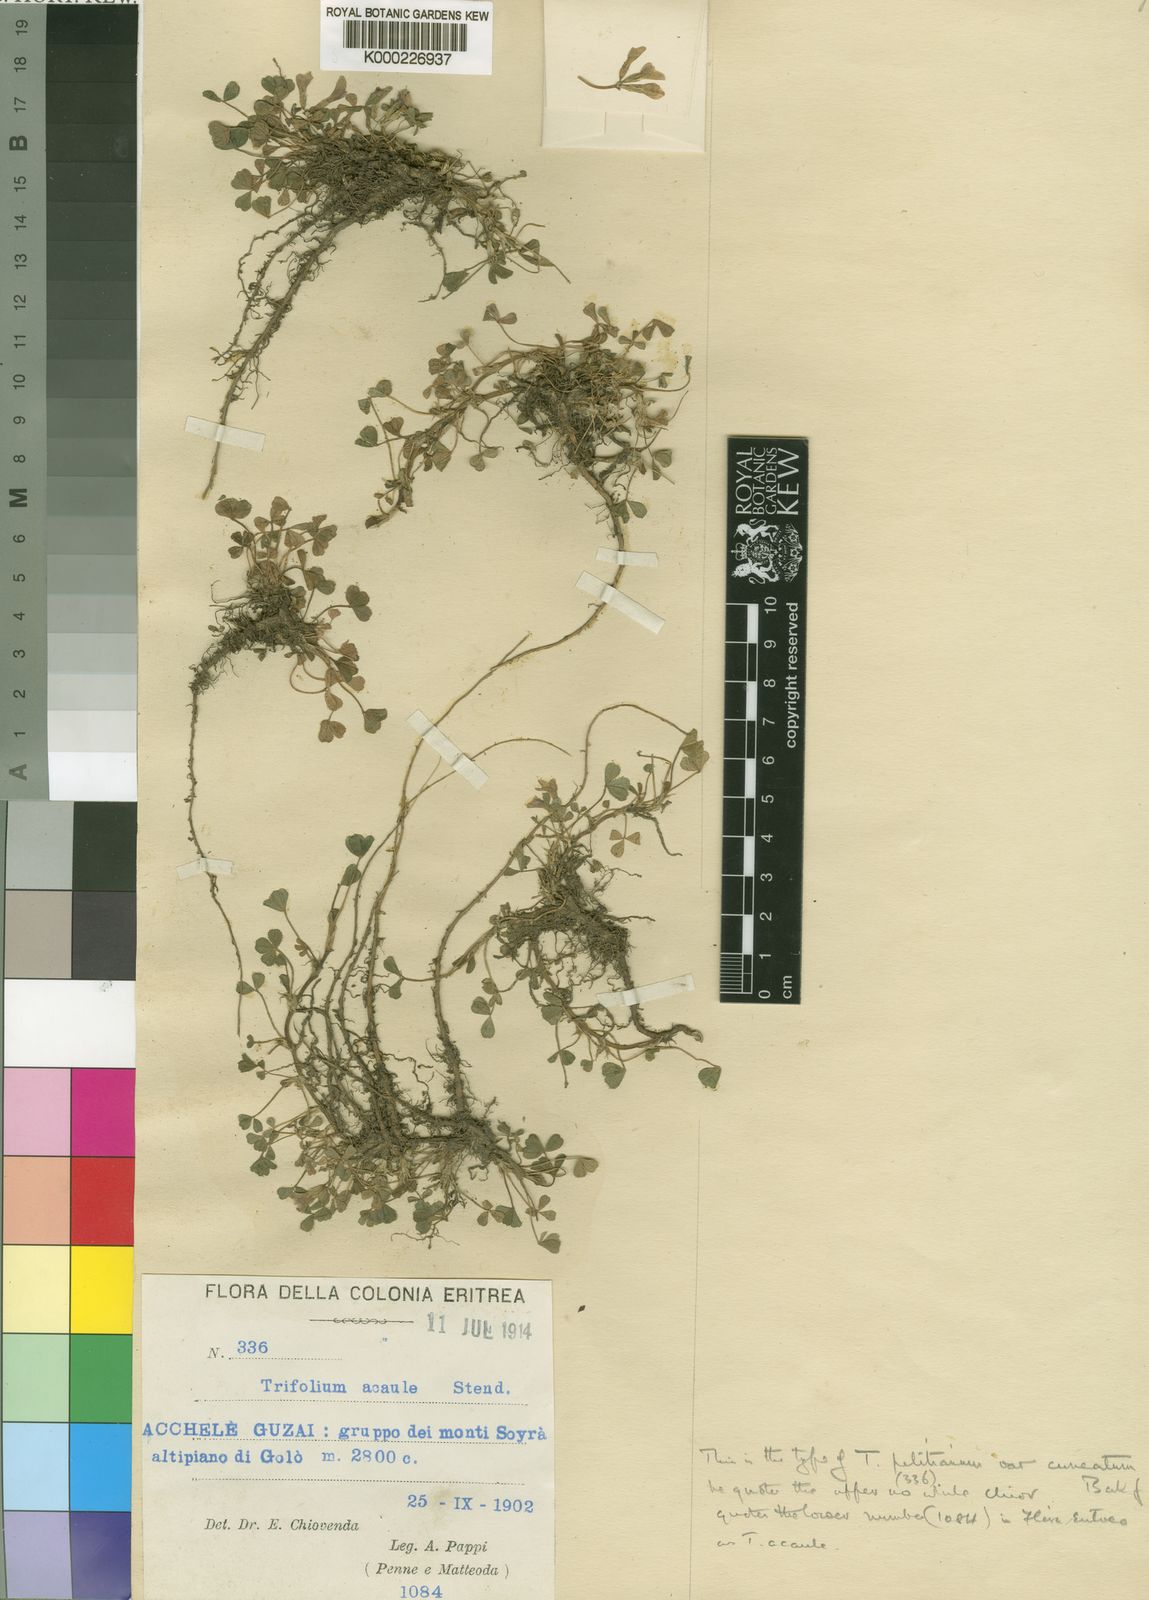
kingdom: Plantae
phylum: Tracheophyta
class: Magnoliopsida
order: Fabales
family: Fabaceae
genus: Trifolium
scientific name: Trifolium acaule
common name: Stemless clover
